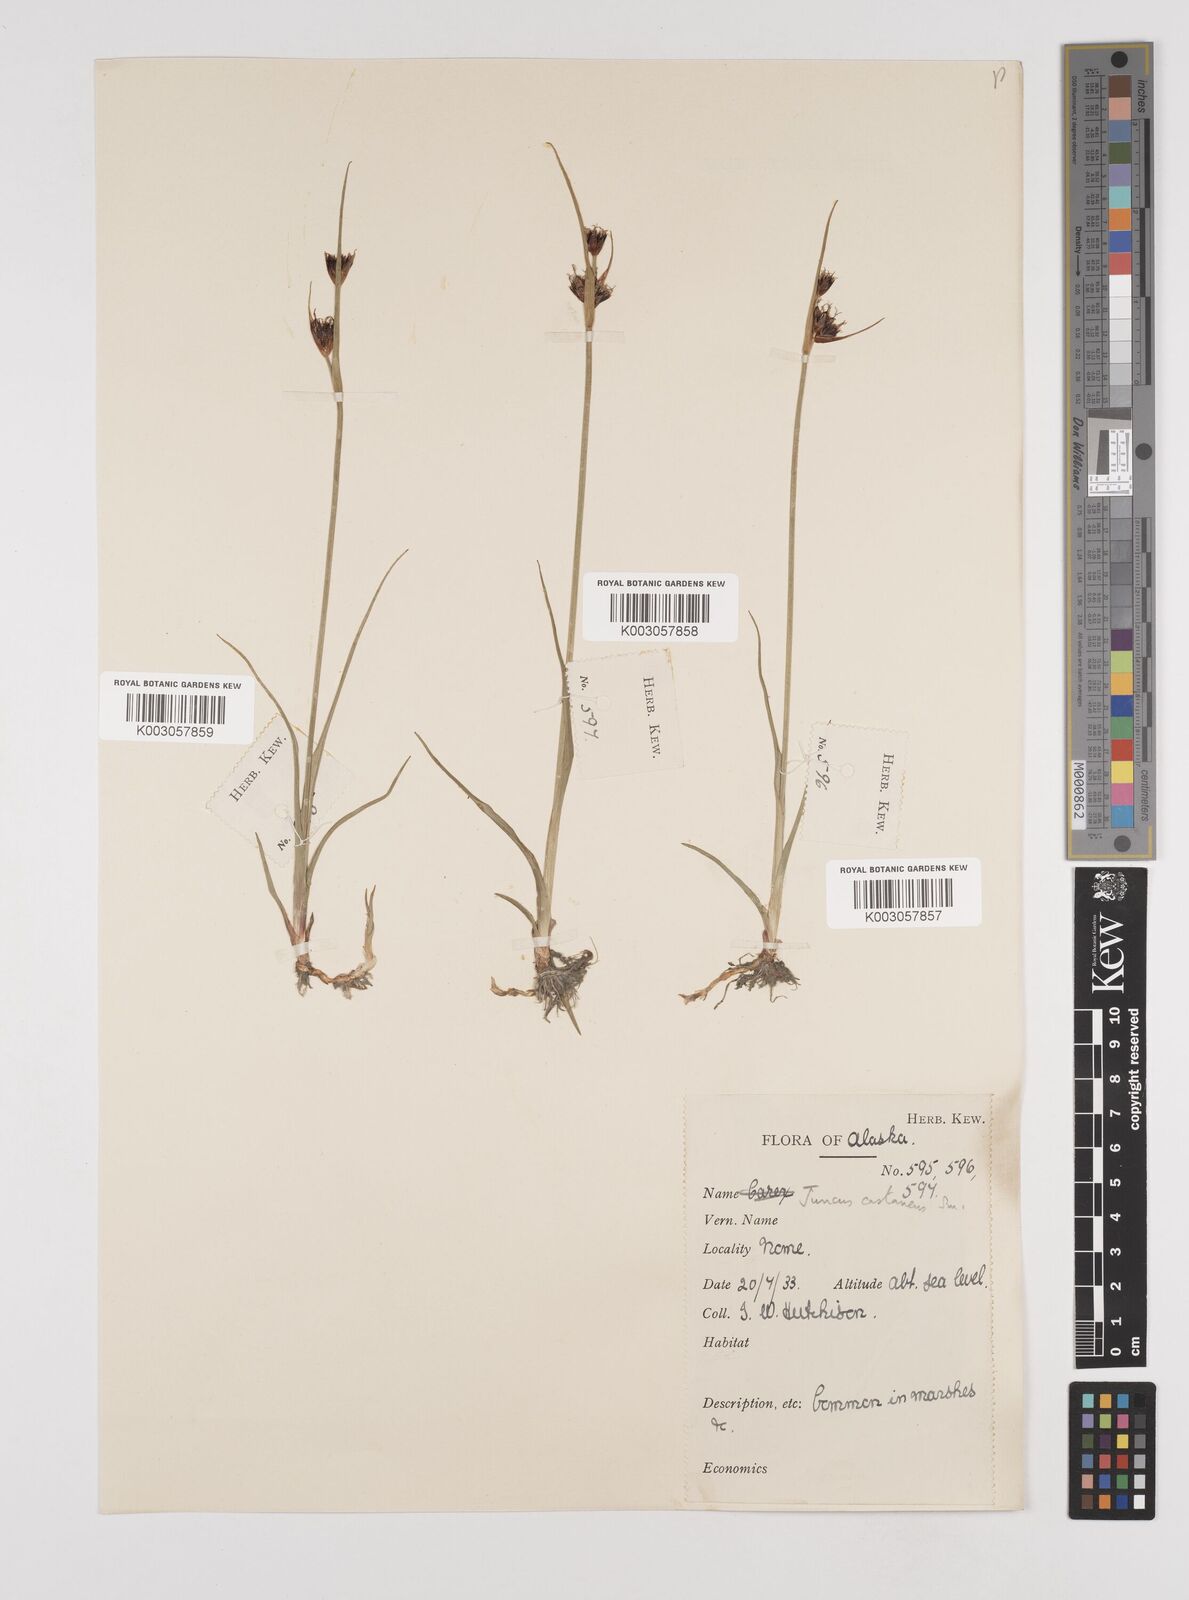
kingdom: Plantae
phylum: Tracheophyta
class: Liliopsida
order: Poales
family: Juncaceae
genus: Juncus
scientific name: Juncus castaneus
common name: Chestnut rush
